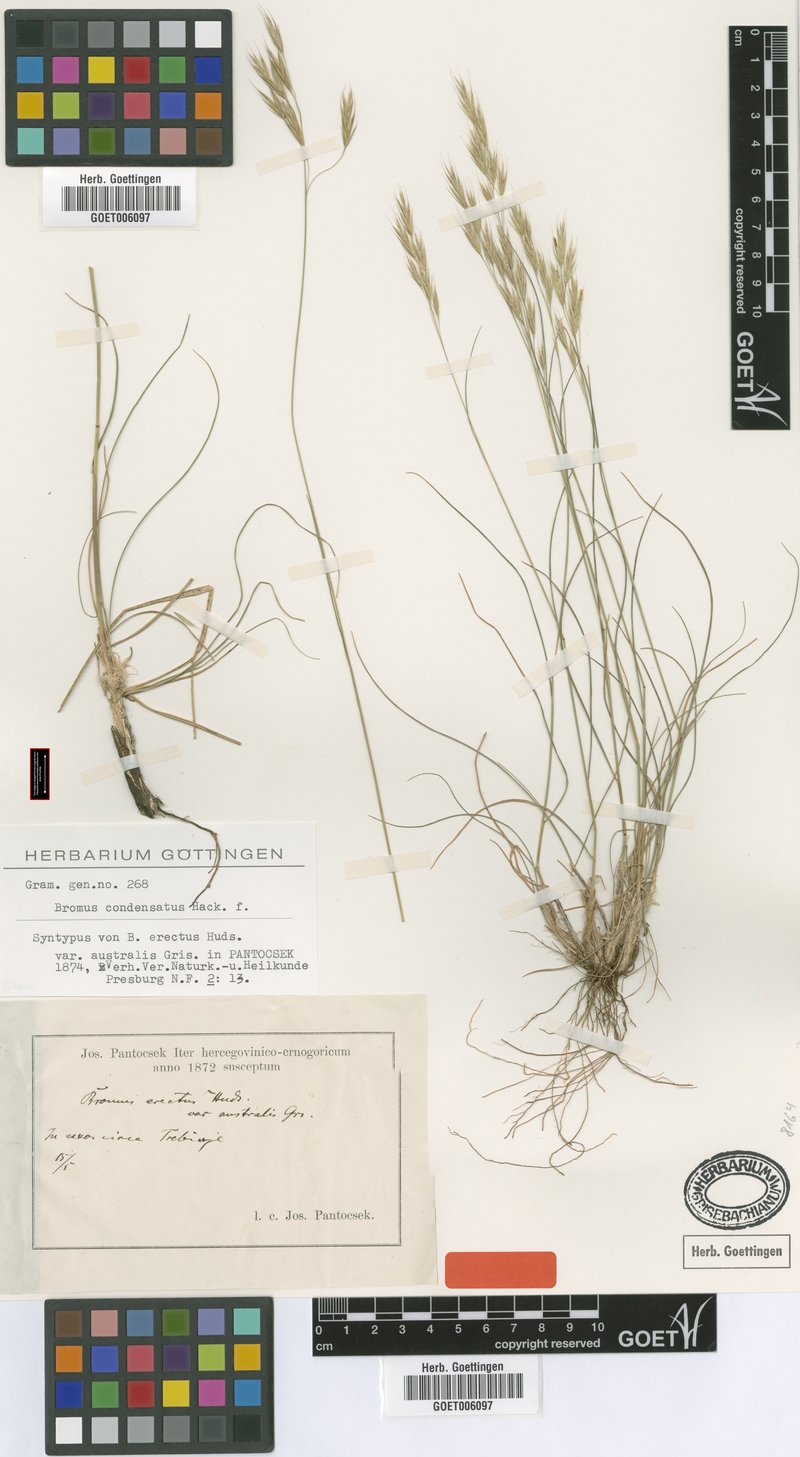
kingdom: Plantae
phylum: Tracheophyta
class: Liliopsida
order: Poales
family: Poaceae
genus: Bromus
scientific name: Bromus condensatus
